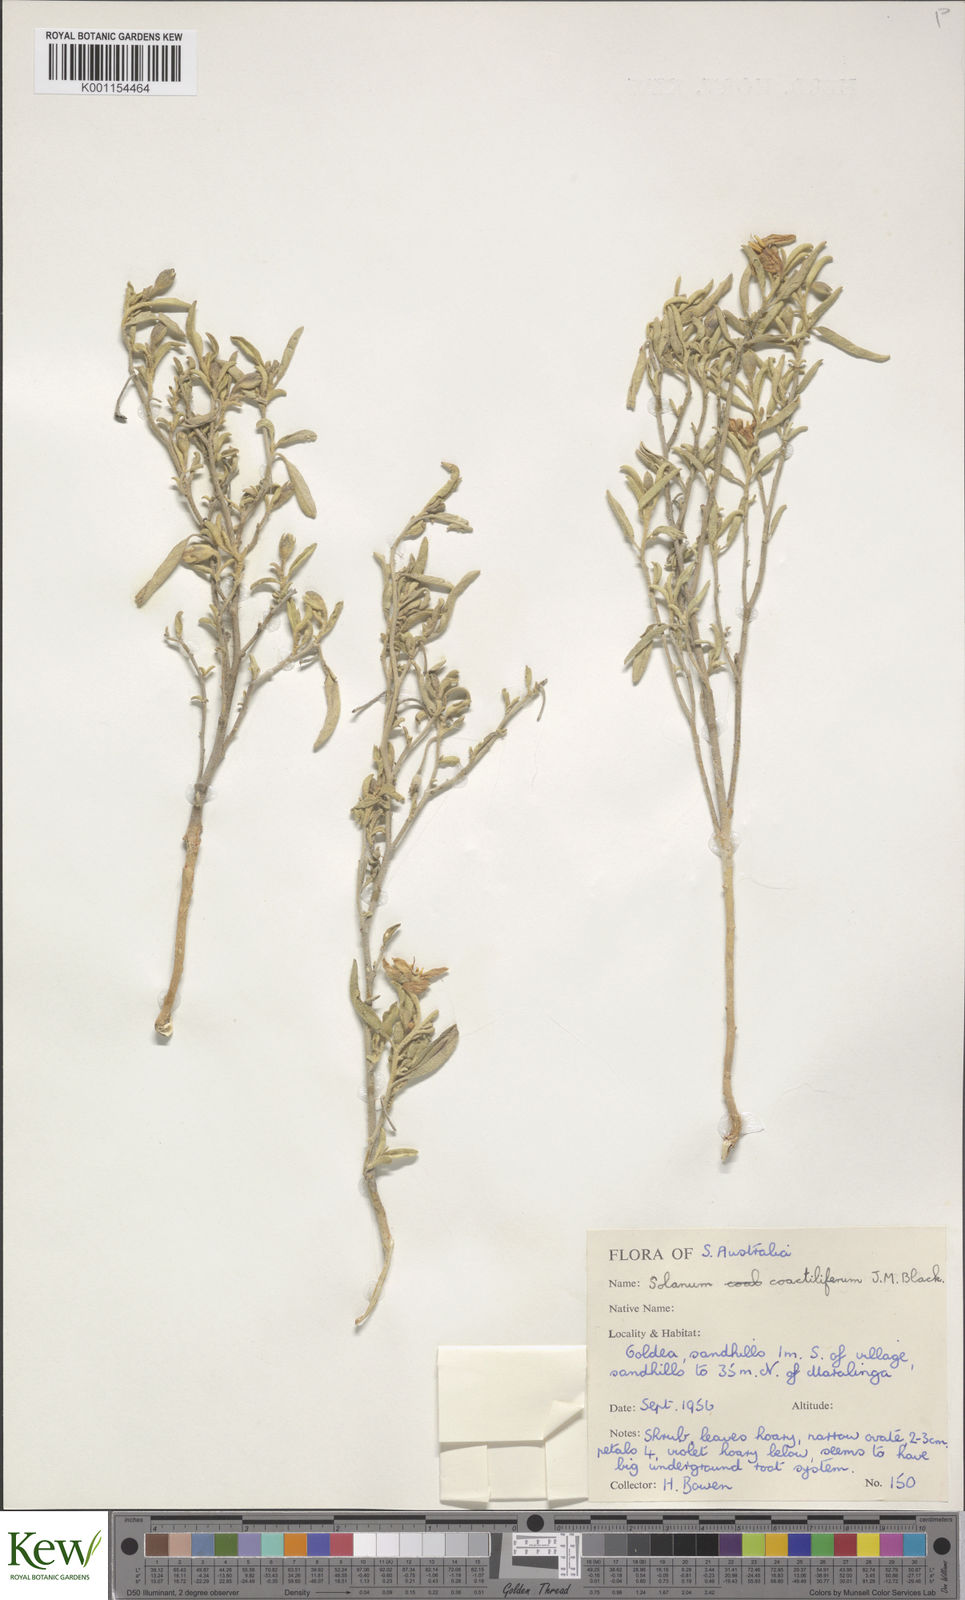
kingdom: Plantae
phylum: Tracheophyta
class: Magnoliopsida
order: Solanales
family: Solanaceae
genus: Solanum
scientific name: Solanum coactiliferum
